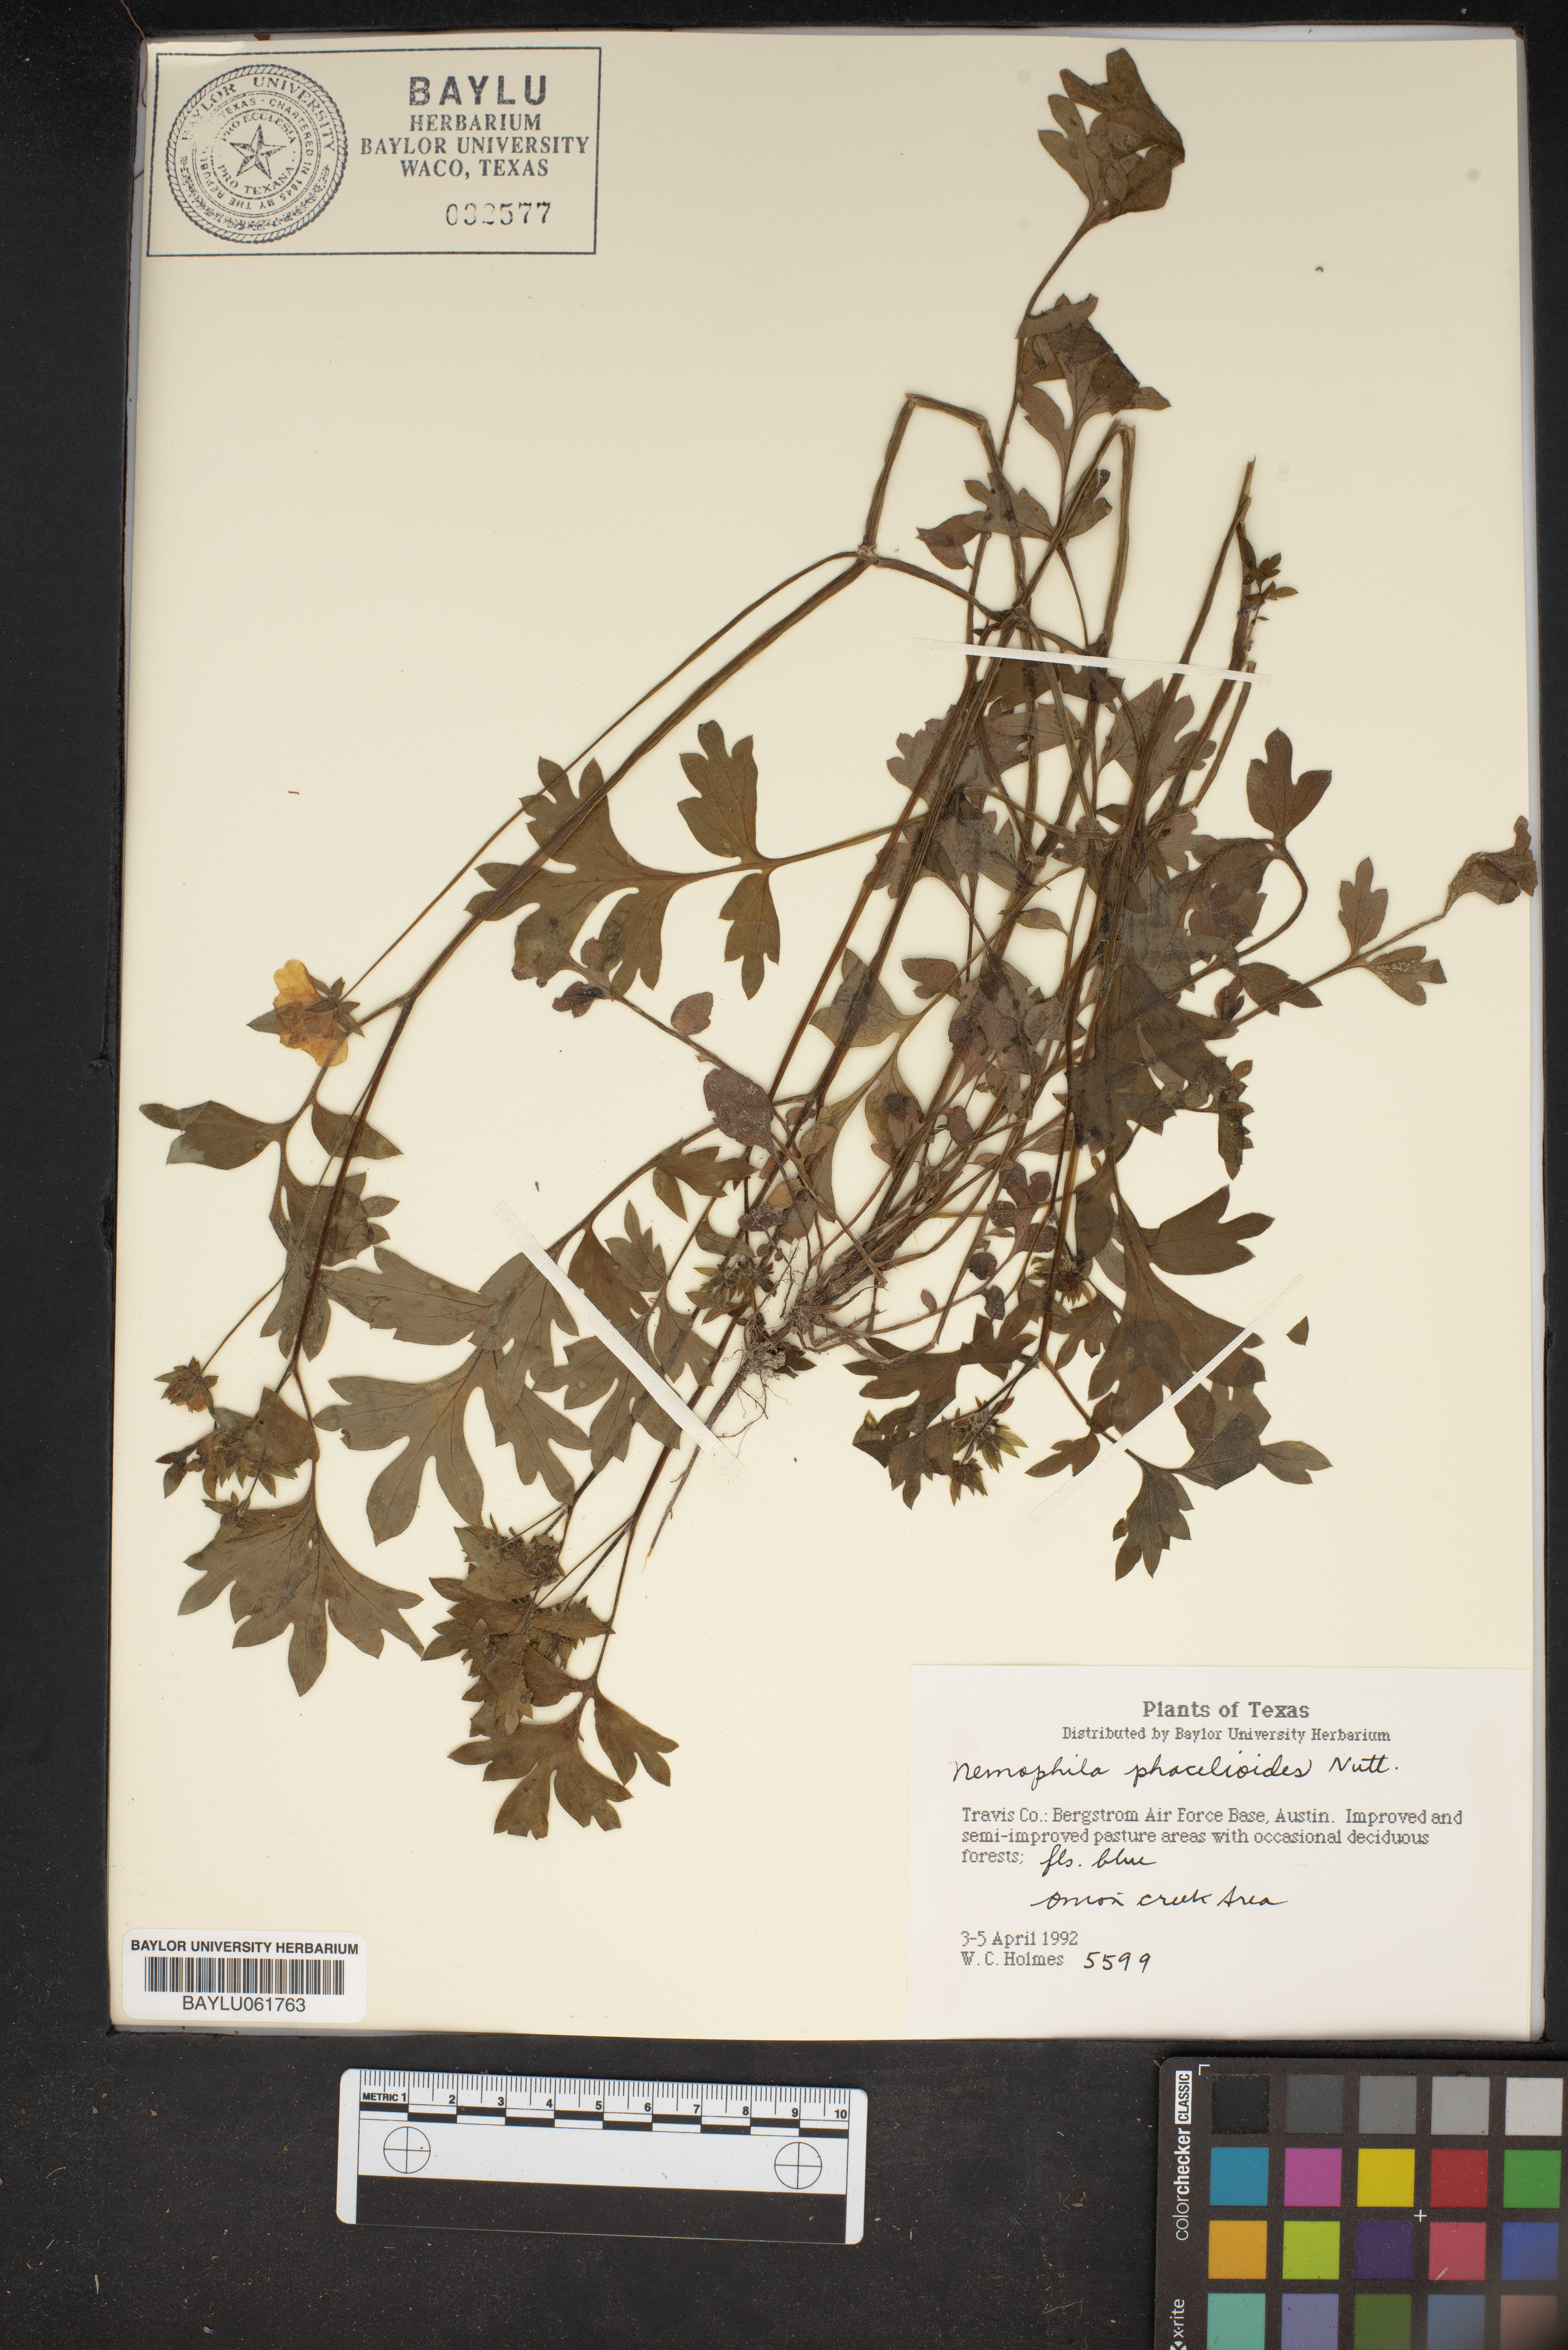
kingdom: Plantae
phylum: Tracheophyta
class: Magnoliopsida
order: Boraginales
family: Hydrophyllaceae
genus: Nemophila
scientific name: Nemophila phacelioides
